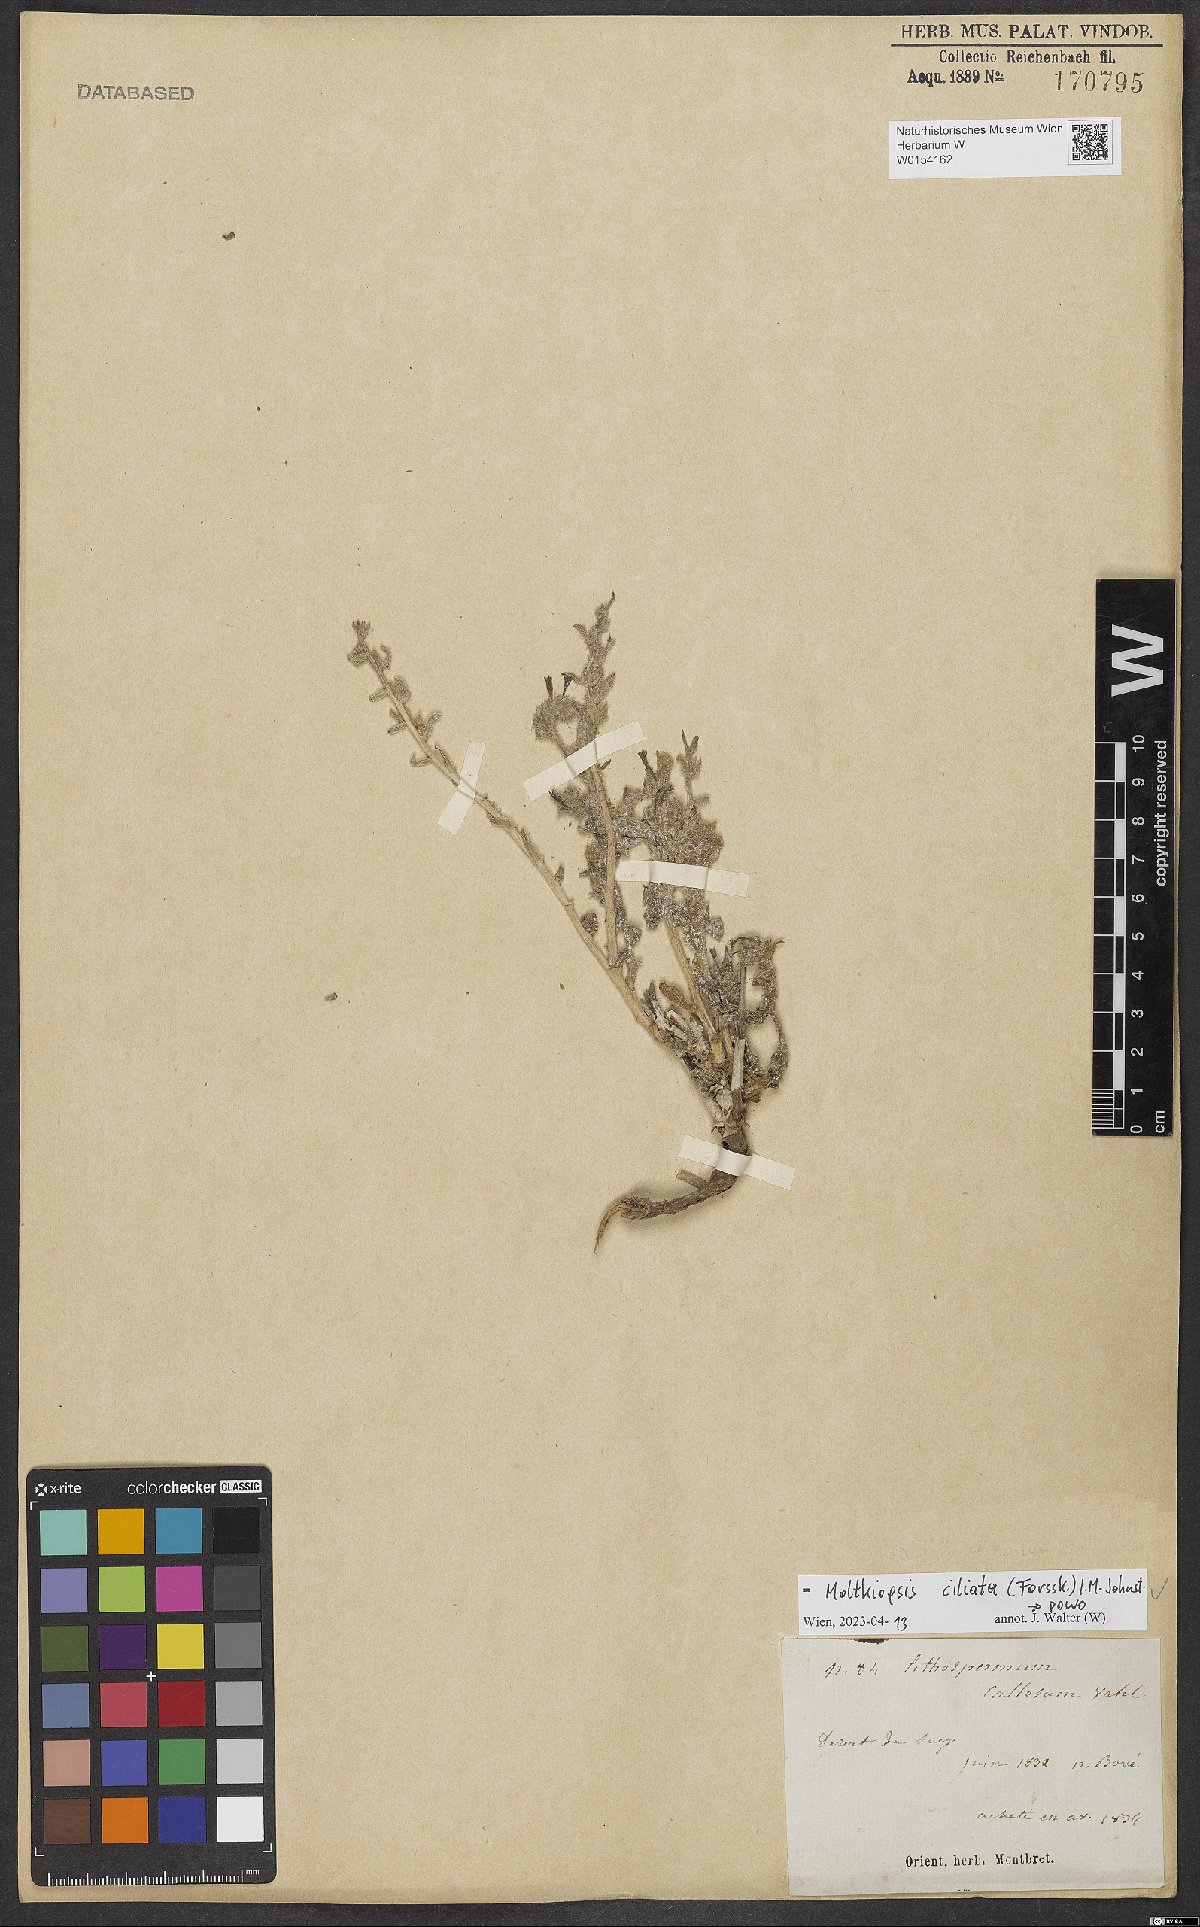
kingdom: Plantae
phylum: Tracheophyta
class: Magnoliopsida
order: Boraginales
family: Boraginaceae
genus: Moltkiopsis
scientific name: Moltkiopsis ciliata
